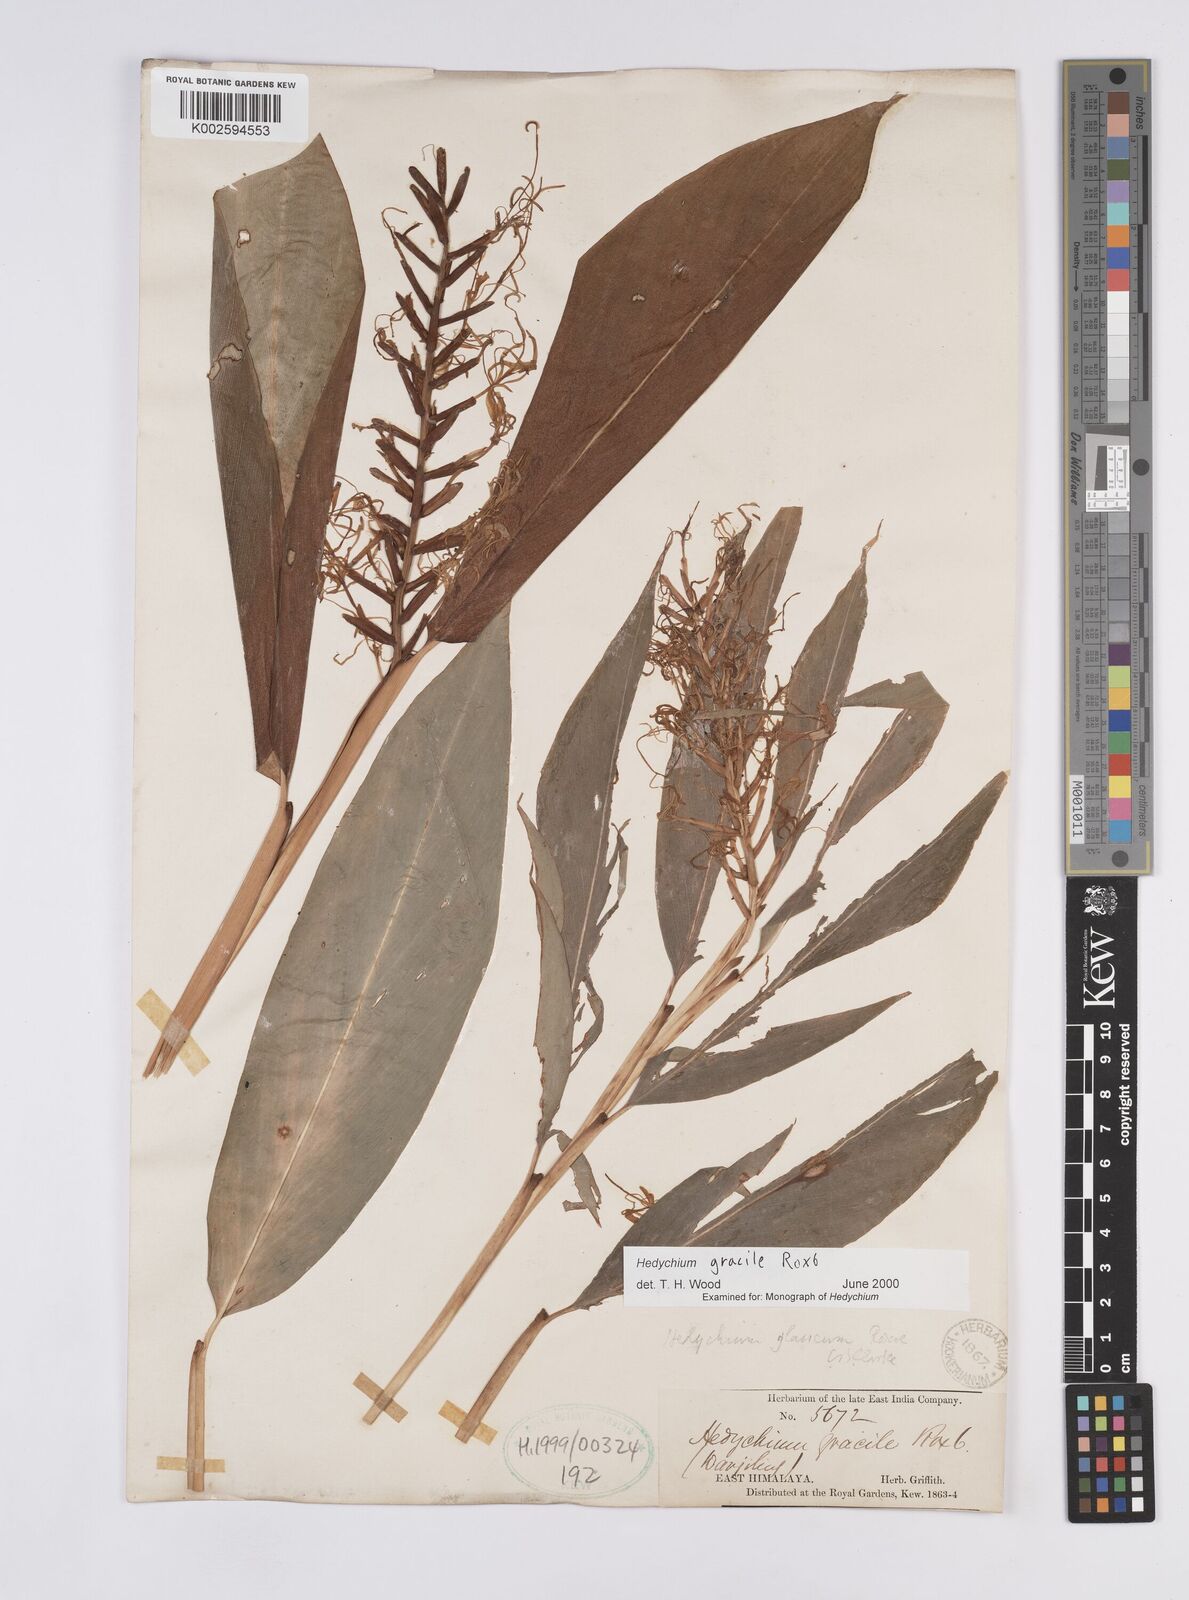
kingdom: Plantae
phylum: Tracheophyta
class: Liliopsida
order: Zingiberales
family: Zingiberaceae
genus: Hedychium
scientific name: Hedychium glaucum
